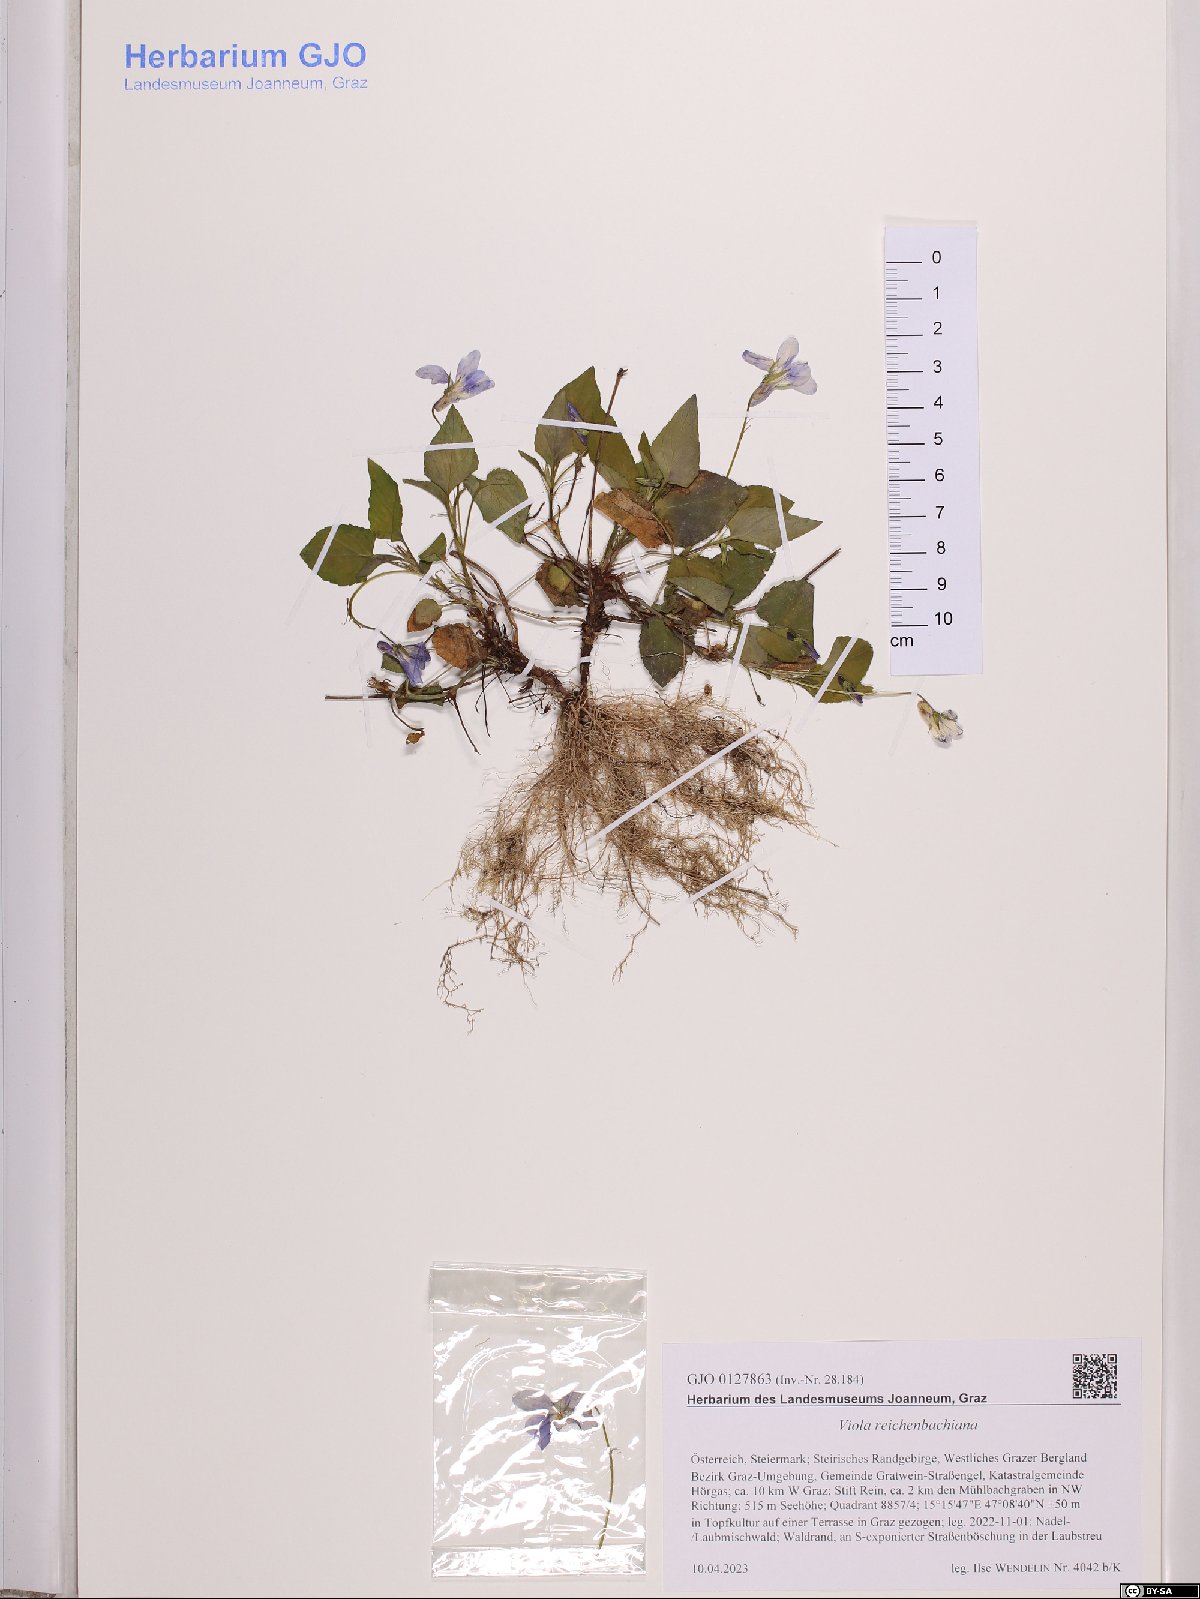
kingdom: Plantae
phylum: Tracheophyta
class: Magnoliopsida
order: Malpighiales
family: Violaceae
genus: Viola
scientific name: Viola reichenbachiana
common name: Early dog-violet
